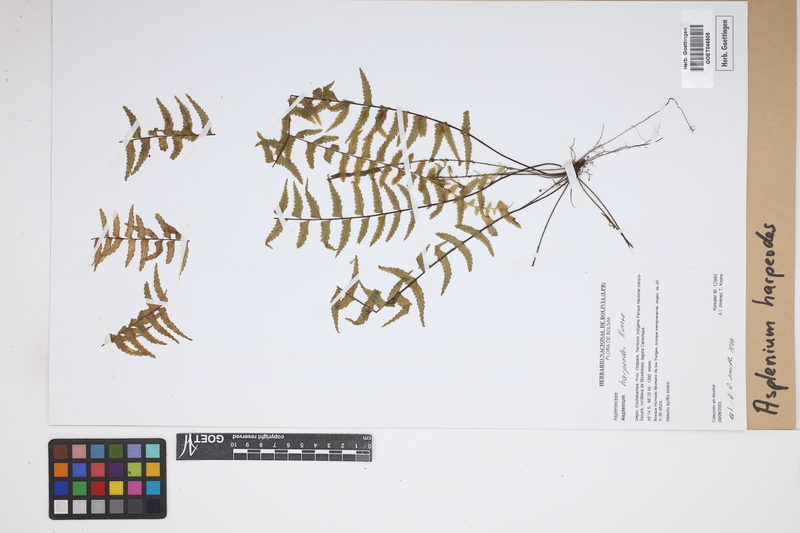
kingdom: Plantae
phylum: Tracheophyta
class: Polypodiopsida
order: Polypodiales
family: Aspleniaceae
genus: Asplenium
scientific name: Asplenium harpeodes
